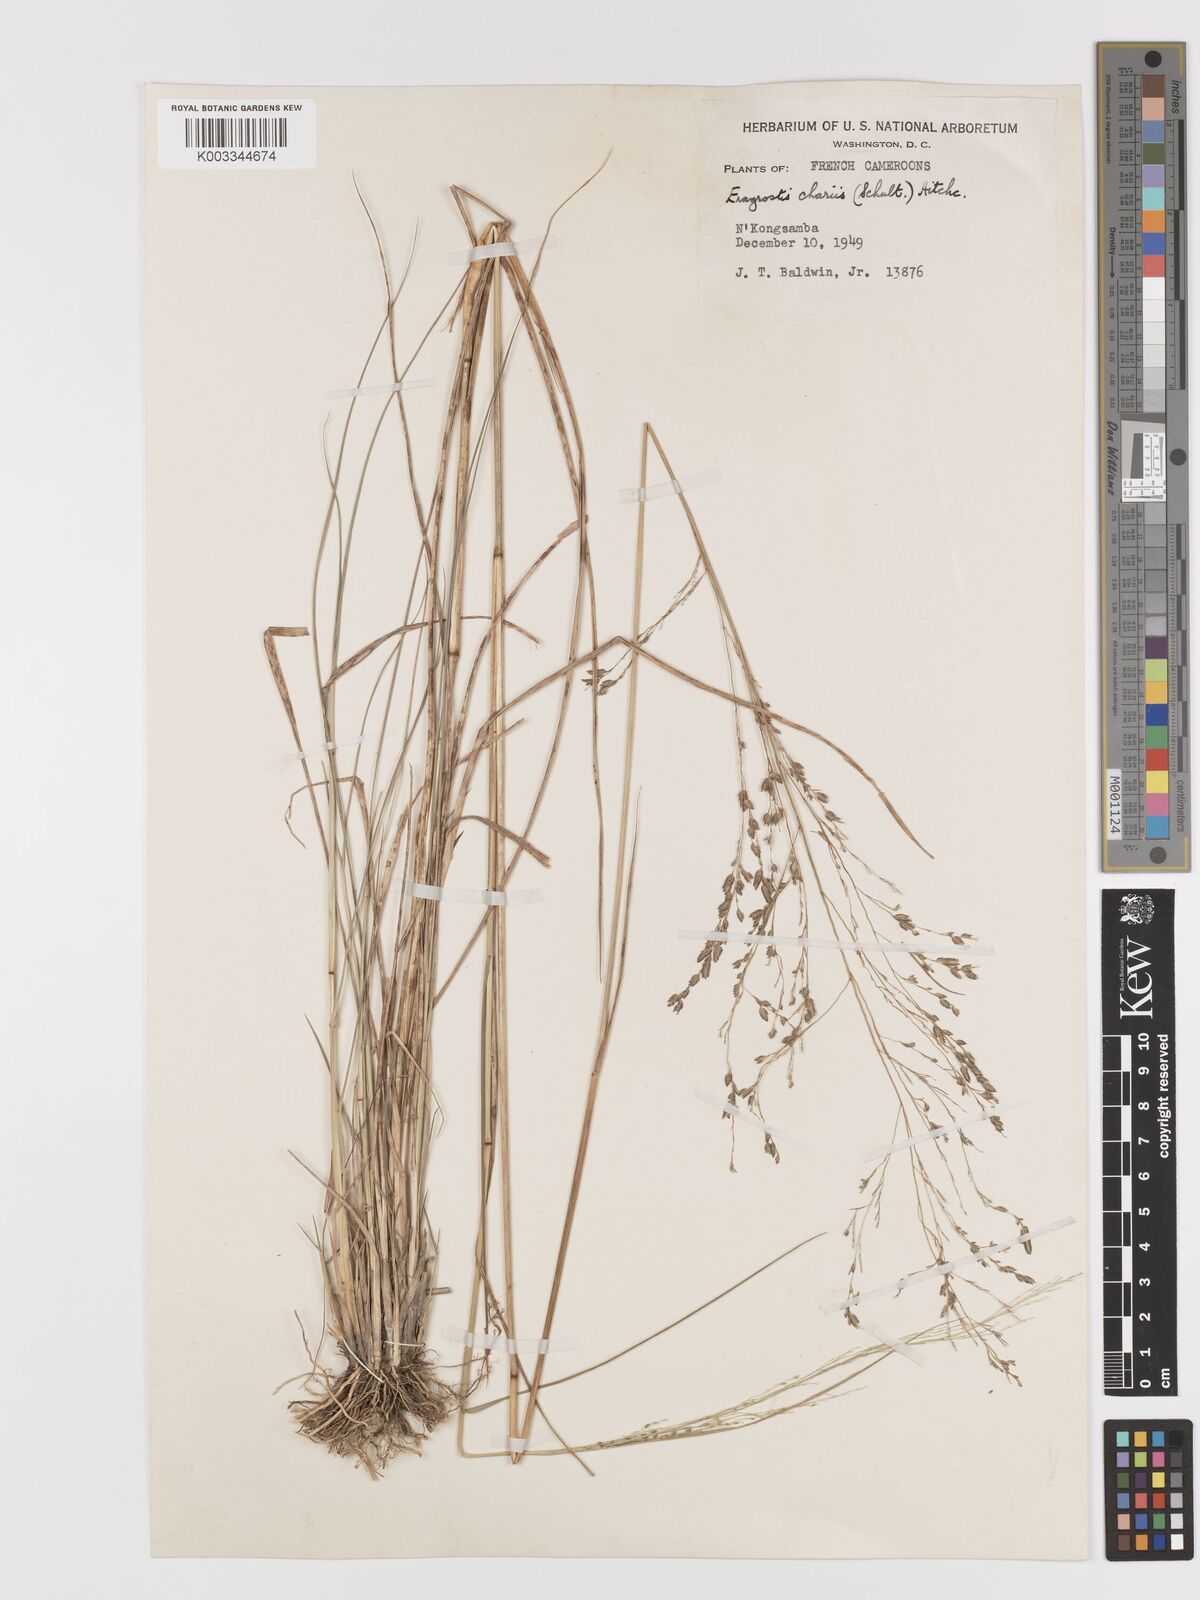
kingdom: Plantae
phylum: Tracheophyta
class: Liliopsida
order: Poales
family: Poaceae
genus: Eragrostis
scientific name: Eragrostis atrovirens
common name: Thalia lovegrass
